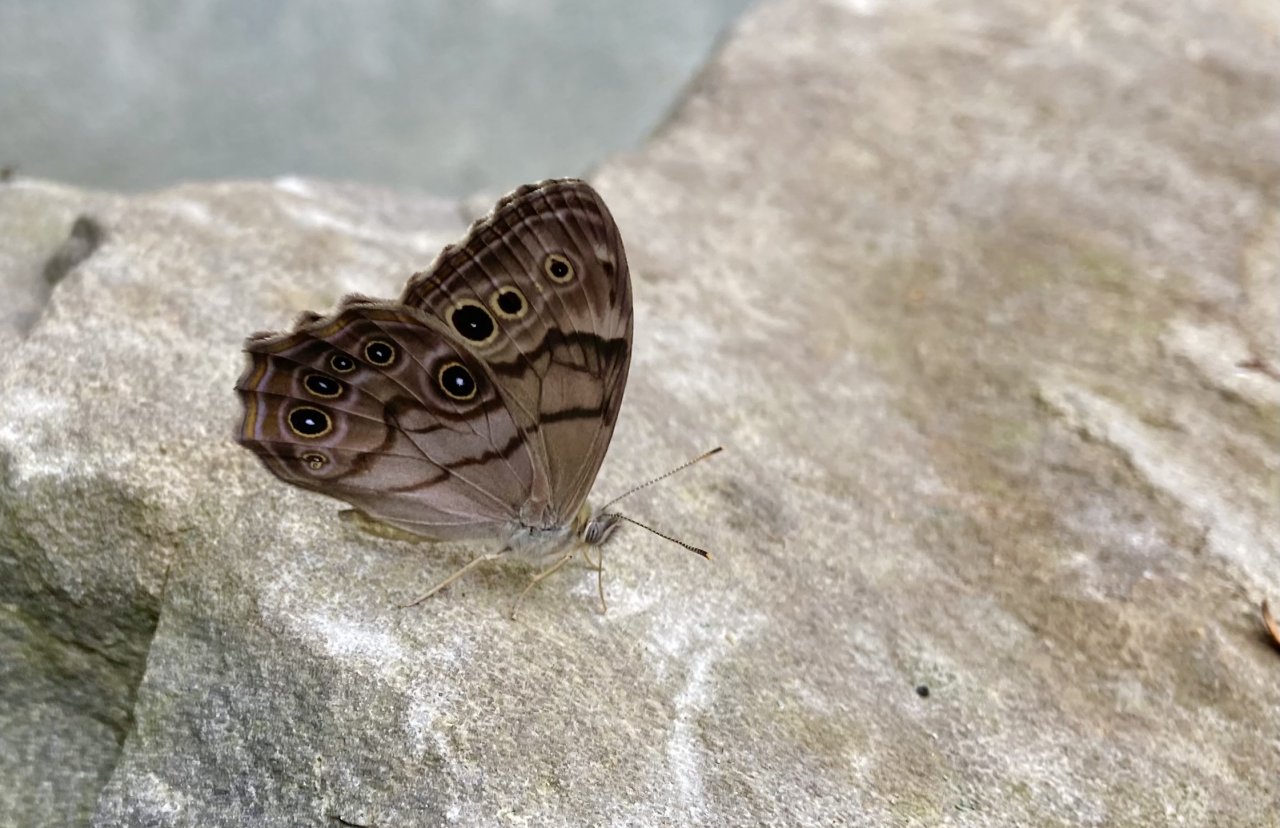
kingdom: Animalia
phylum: Arthropoda
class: Insecta
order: Lepidoptera
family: Nymphalidae
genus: Lethe
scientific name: Lethe anthedon
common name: Northern Pearly-Eye
